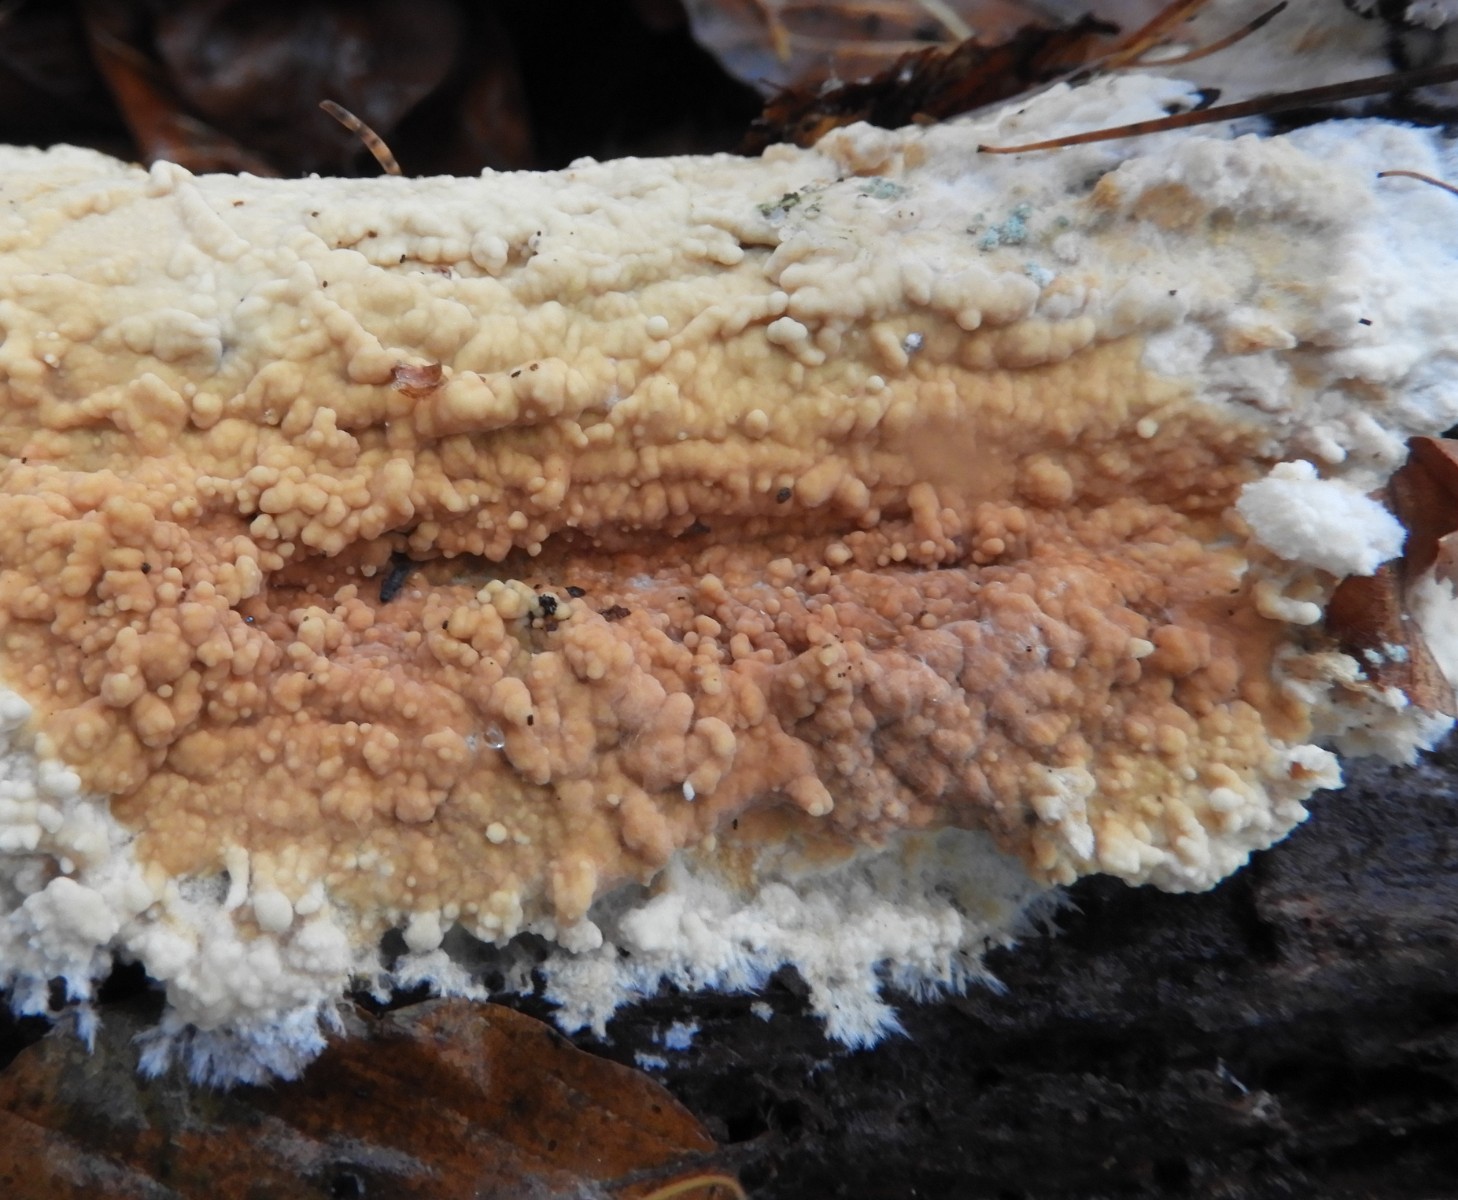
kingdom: Fungi
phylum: Basidiomycota
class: Agaricomycetes
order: Polyporales
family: Dacryobolaceae
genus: Dacryobolus
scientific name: Dacryobolus karstenii
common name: glat vulkanskorpe
